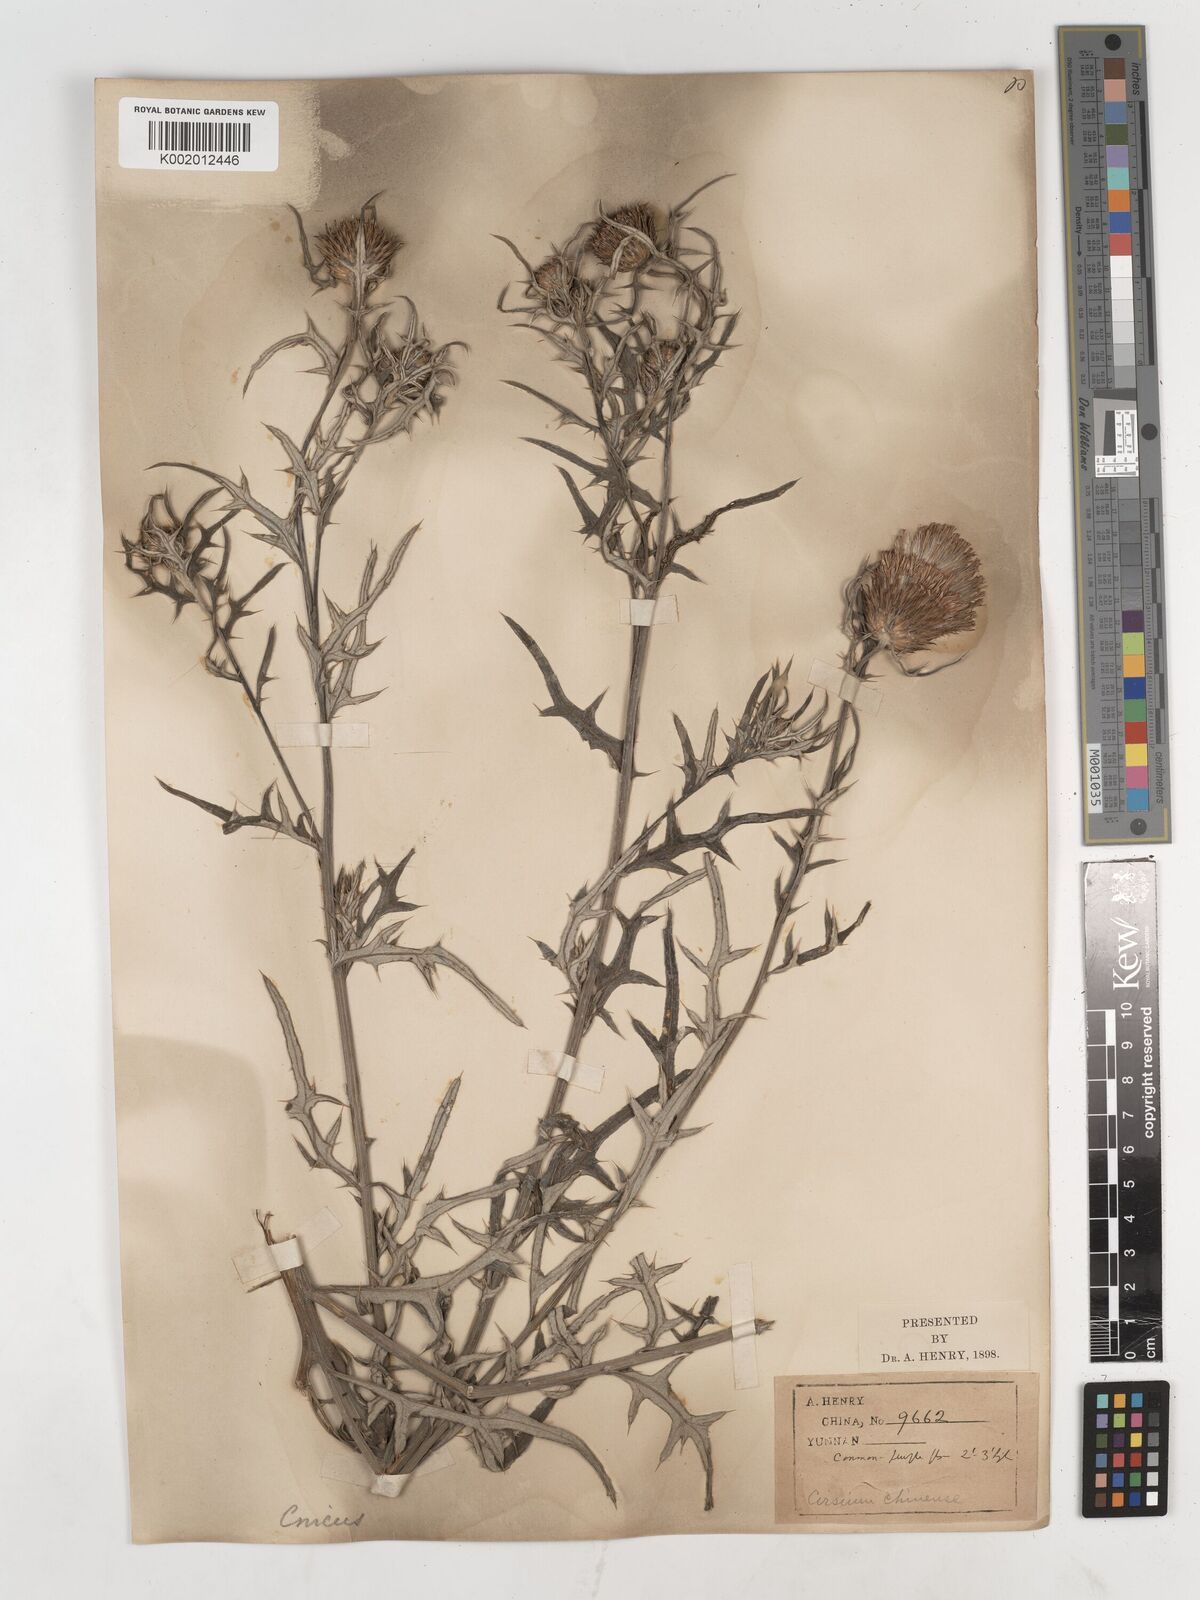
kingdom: Plantae
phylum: Tracheophyta
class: Magnoliopsida
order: Asterales
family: Asteraceae
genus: Lophiolepis
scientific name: Lophiolepis veruta
